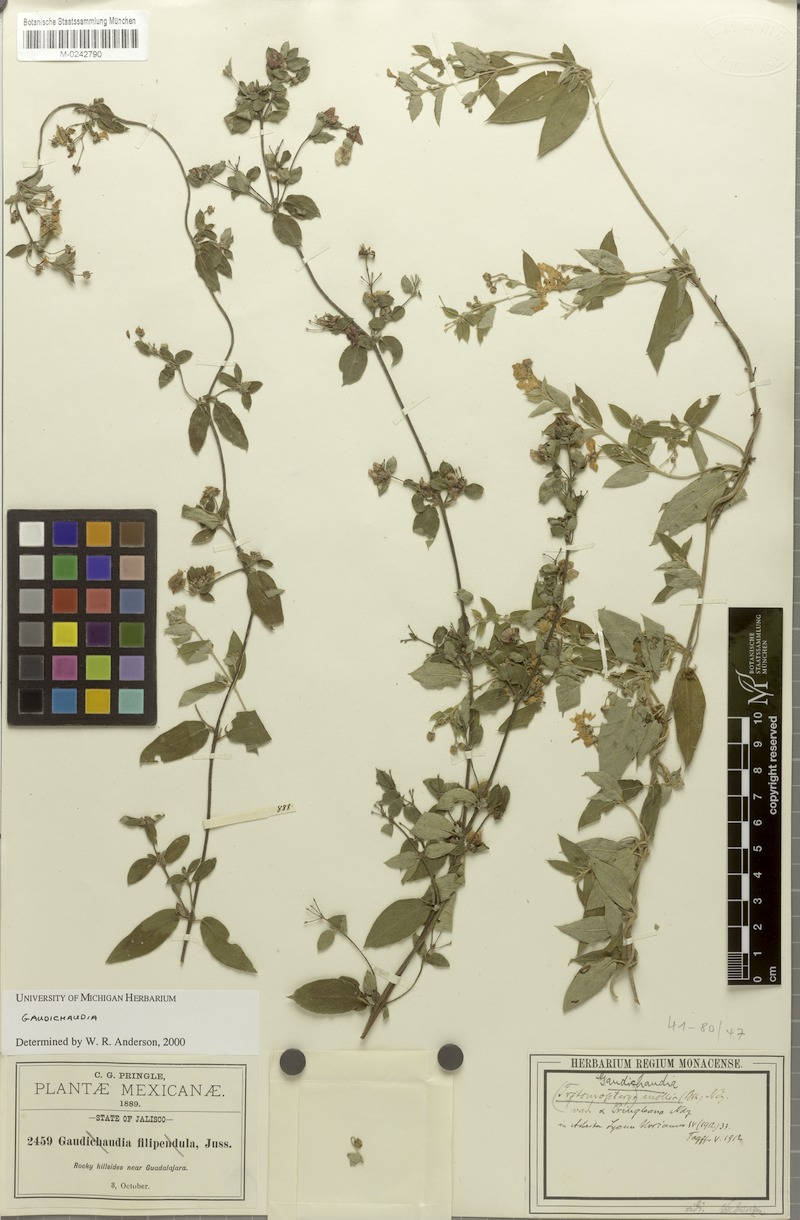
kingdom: Plantae
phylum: Tracheophyta
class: Magnoliopsida
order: Malpighiales
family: Malpighiaceae
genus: Gaudichaudia
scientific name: Gaudichaudia mollis
